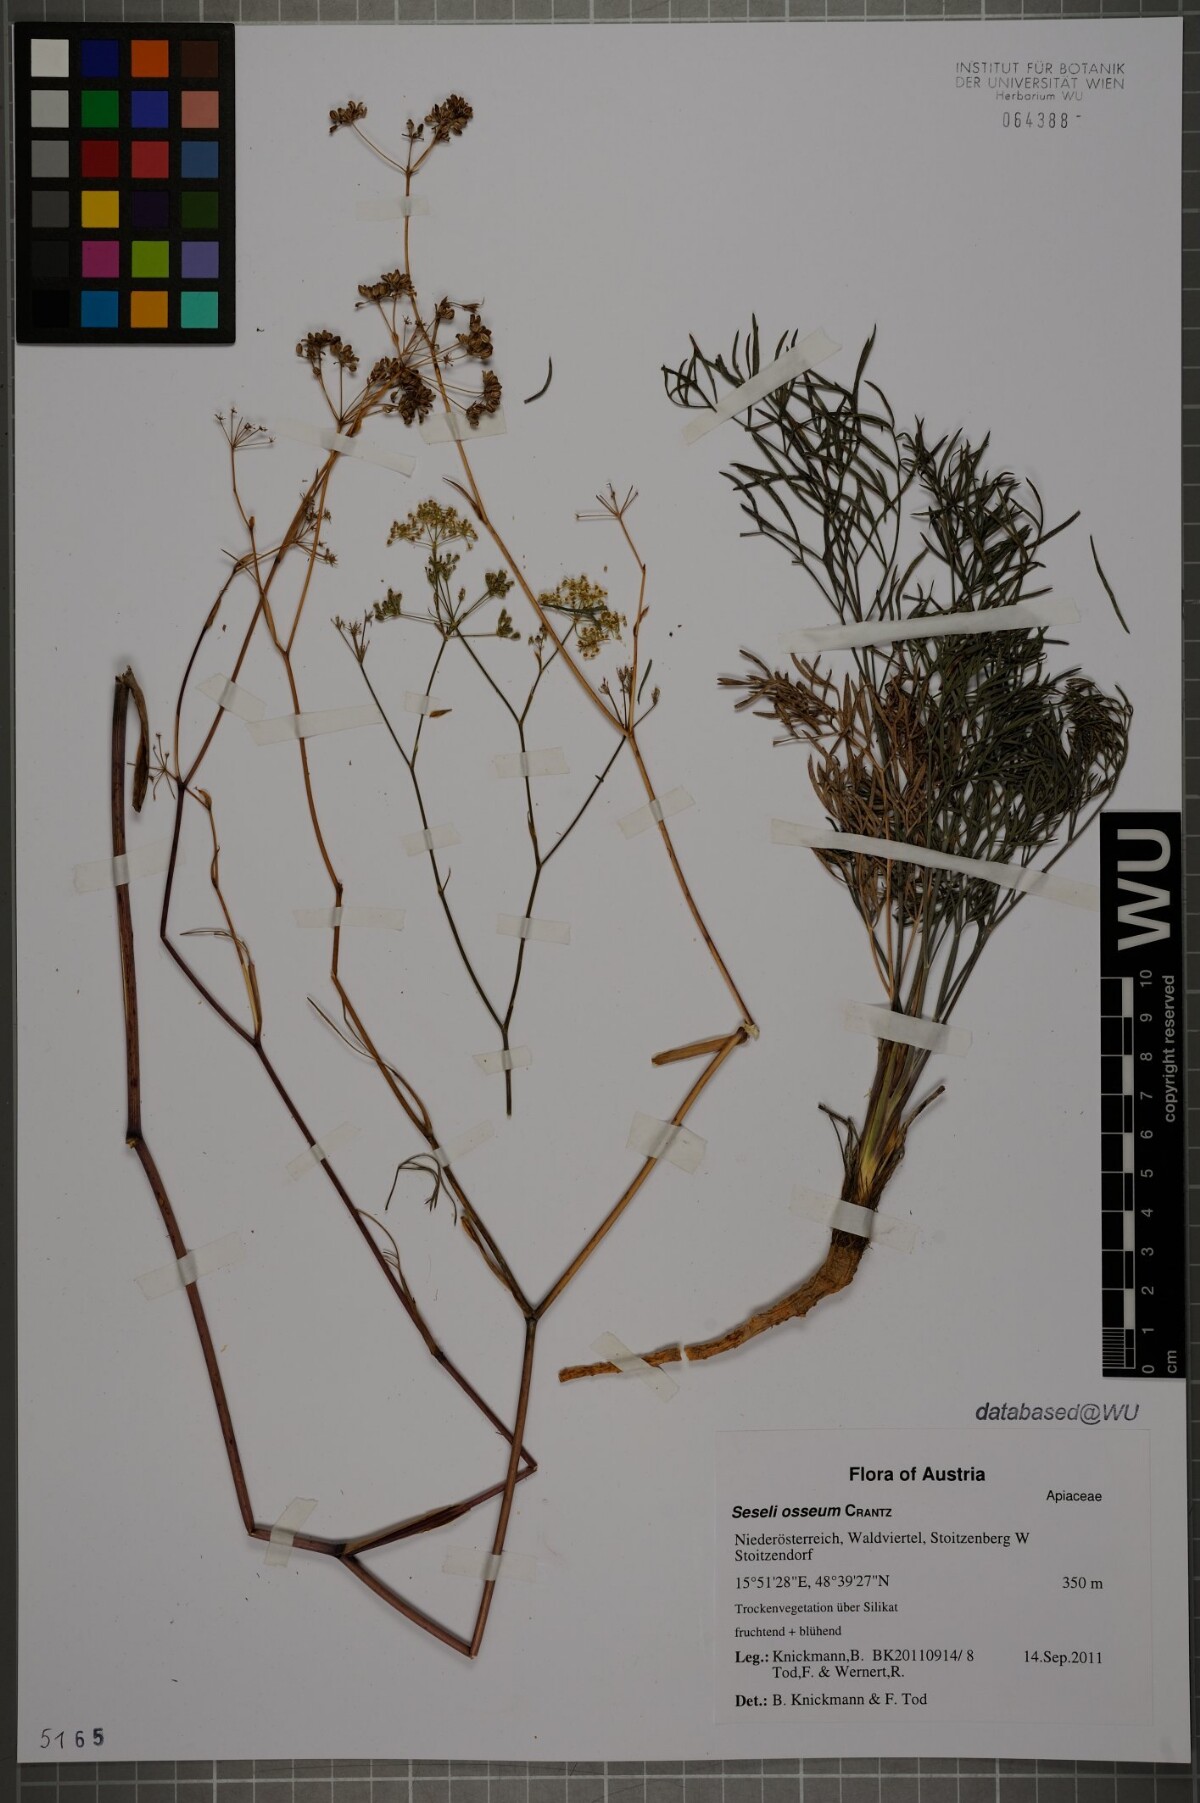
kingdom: Plantae
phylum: Tracheophyta
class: Magnoliopsida
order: Apiales
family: Apiaceae
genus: Seseli
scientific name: Seseli osseum
